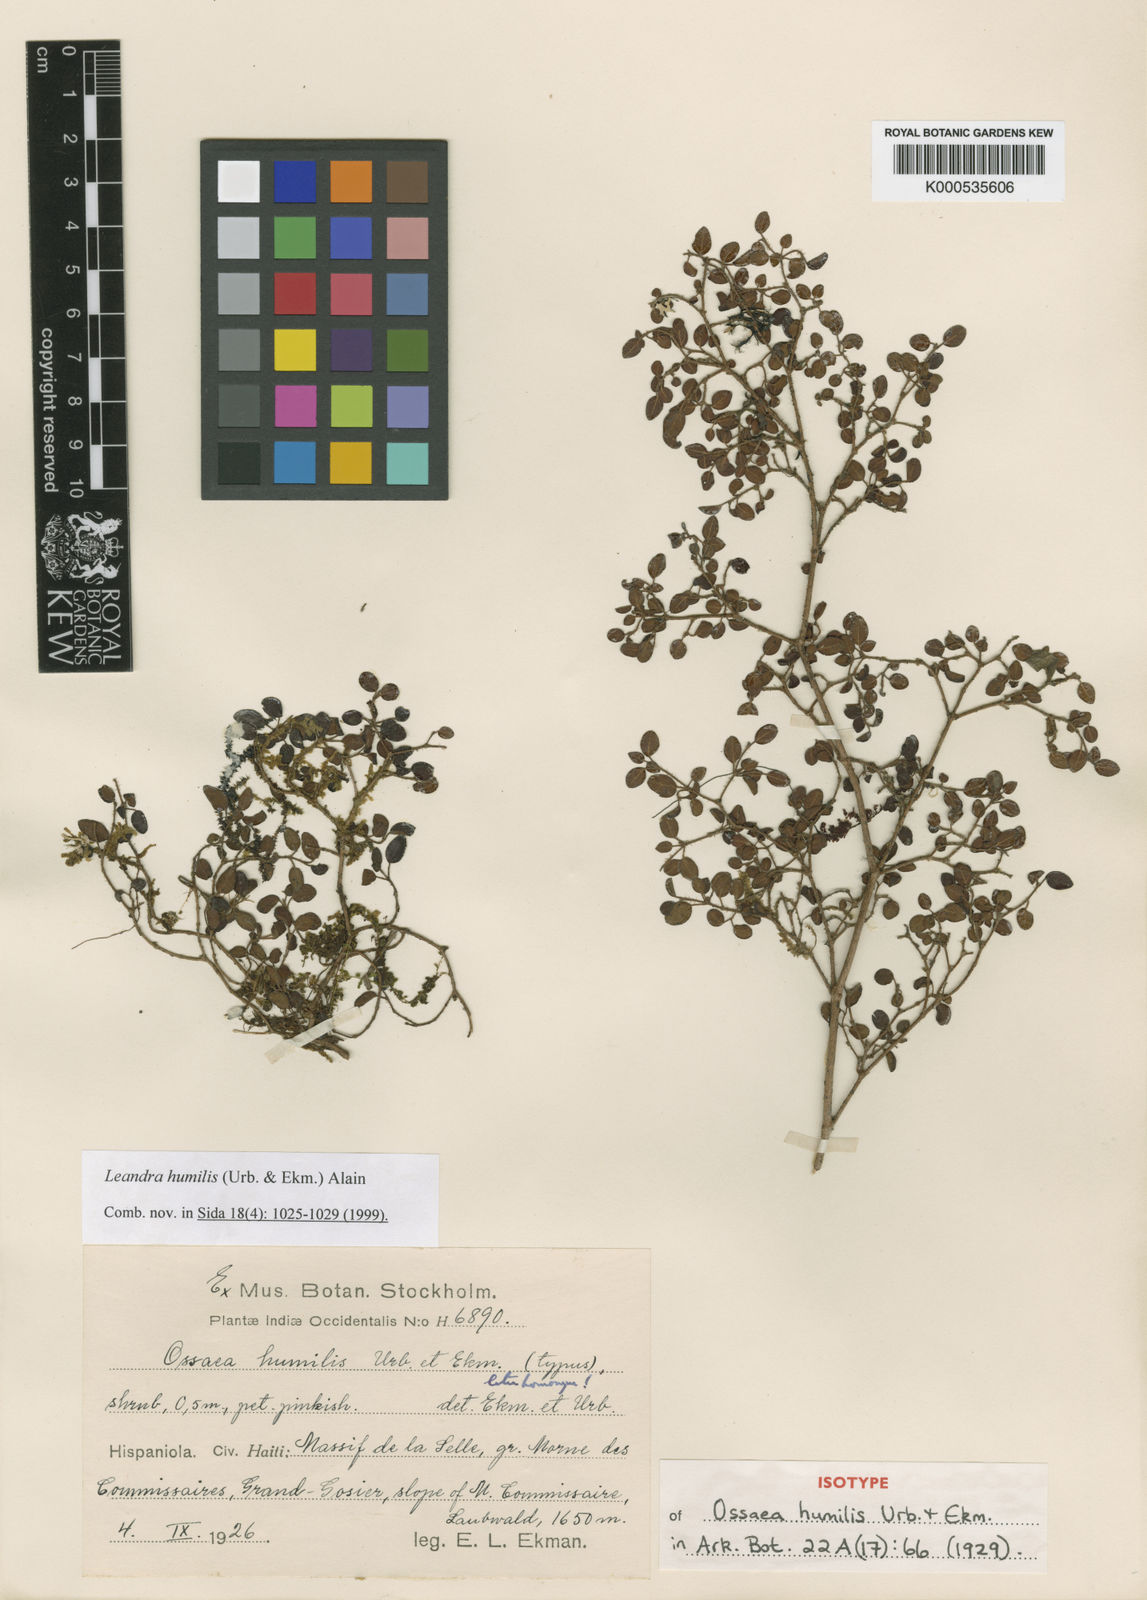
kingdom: Plantae
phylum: Tracheophyta
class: Magnoliopsida
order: Myrtales
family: Melastomataceae
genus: Miconia
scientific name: Miconia nanophylla
